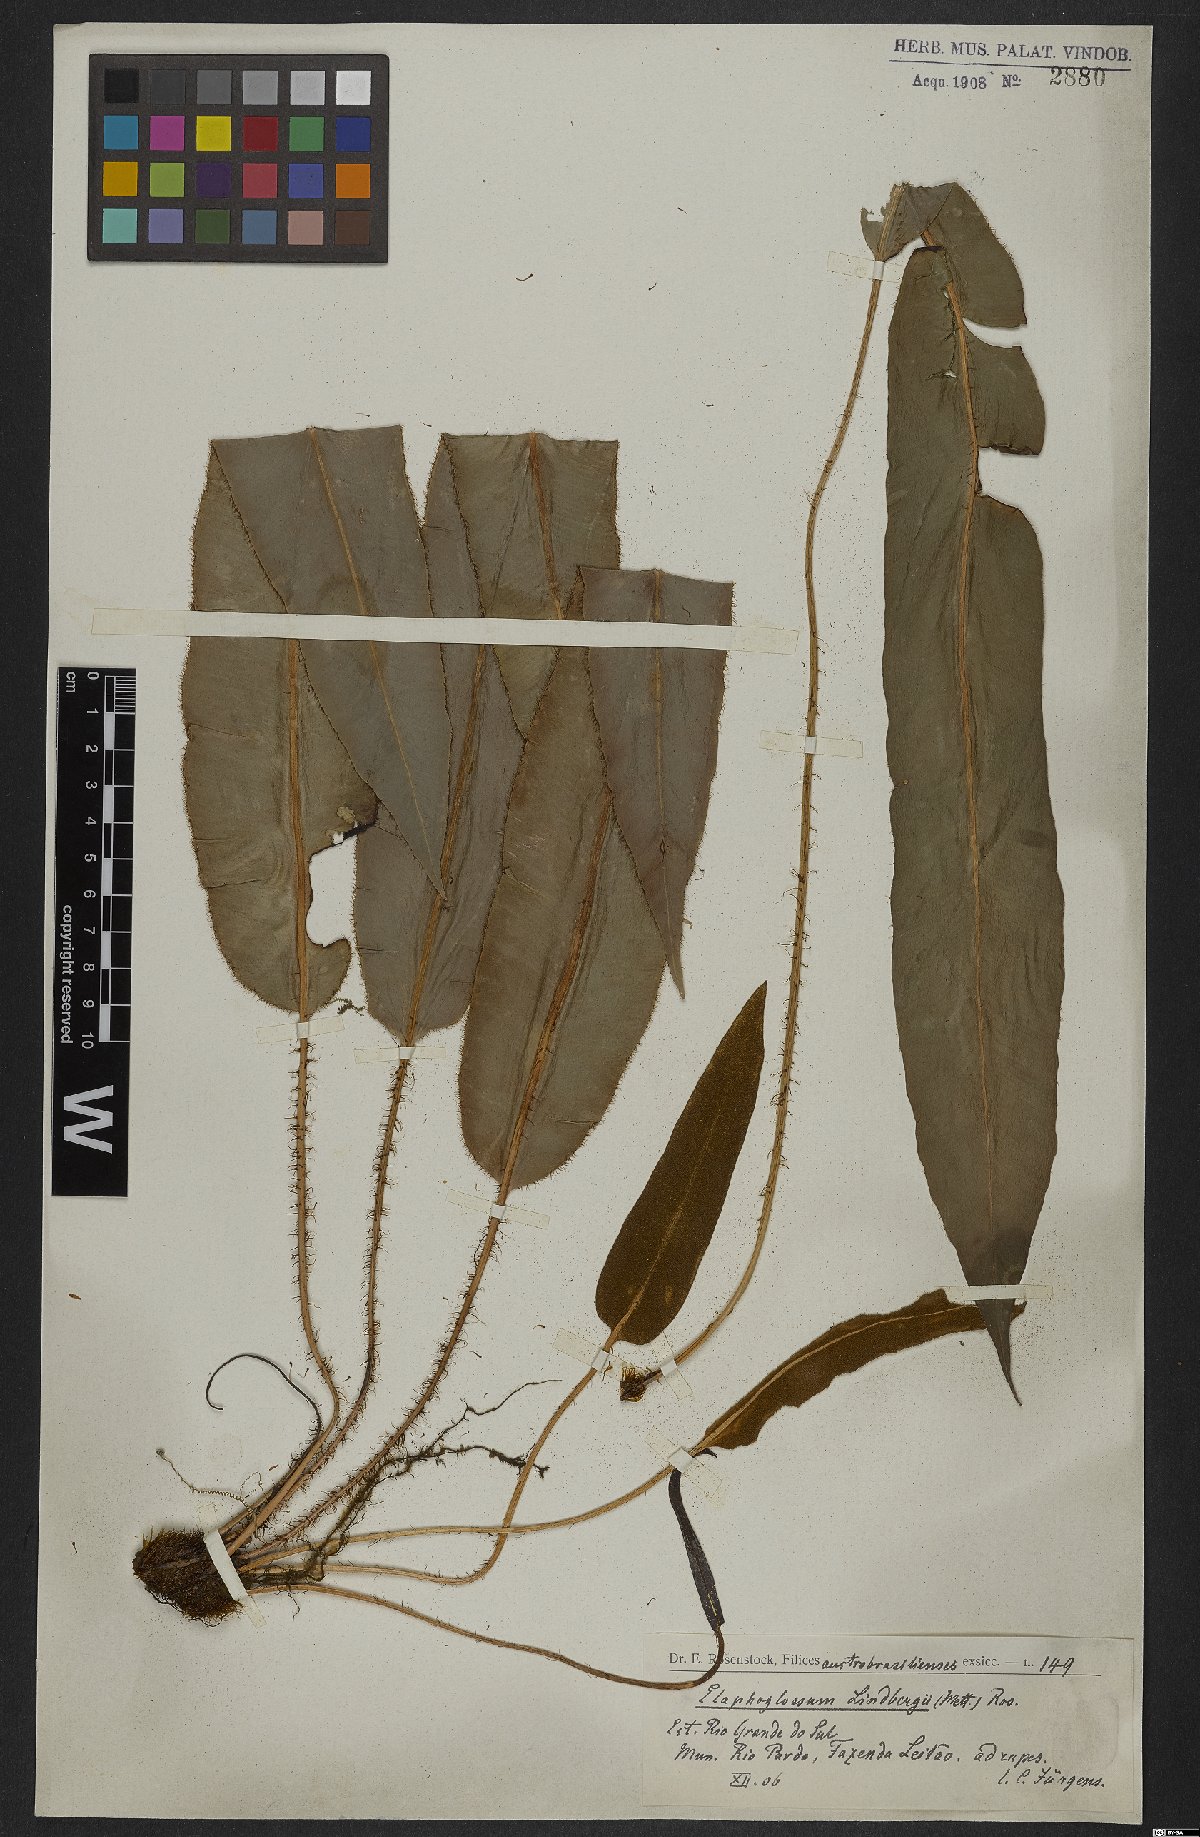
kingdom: Plantae
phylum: Tracheophyta
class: Polypodiopsida
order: Polypodiales
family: Dryopteridaceae
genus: Elaphoglossum
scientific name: Elaphoglossum hybridum
